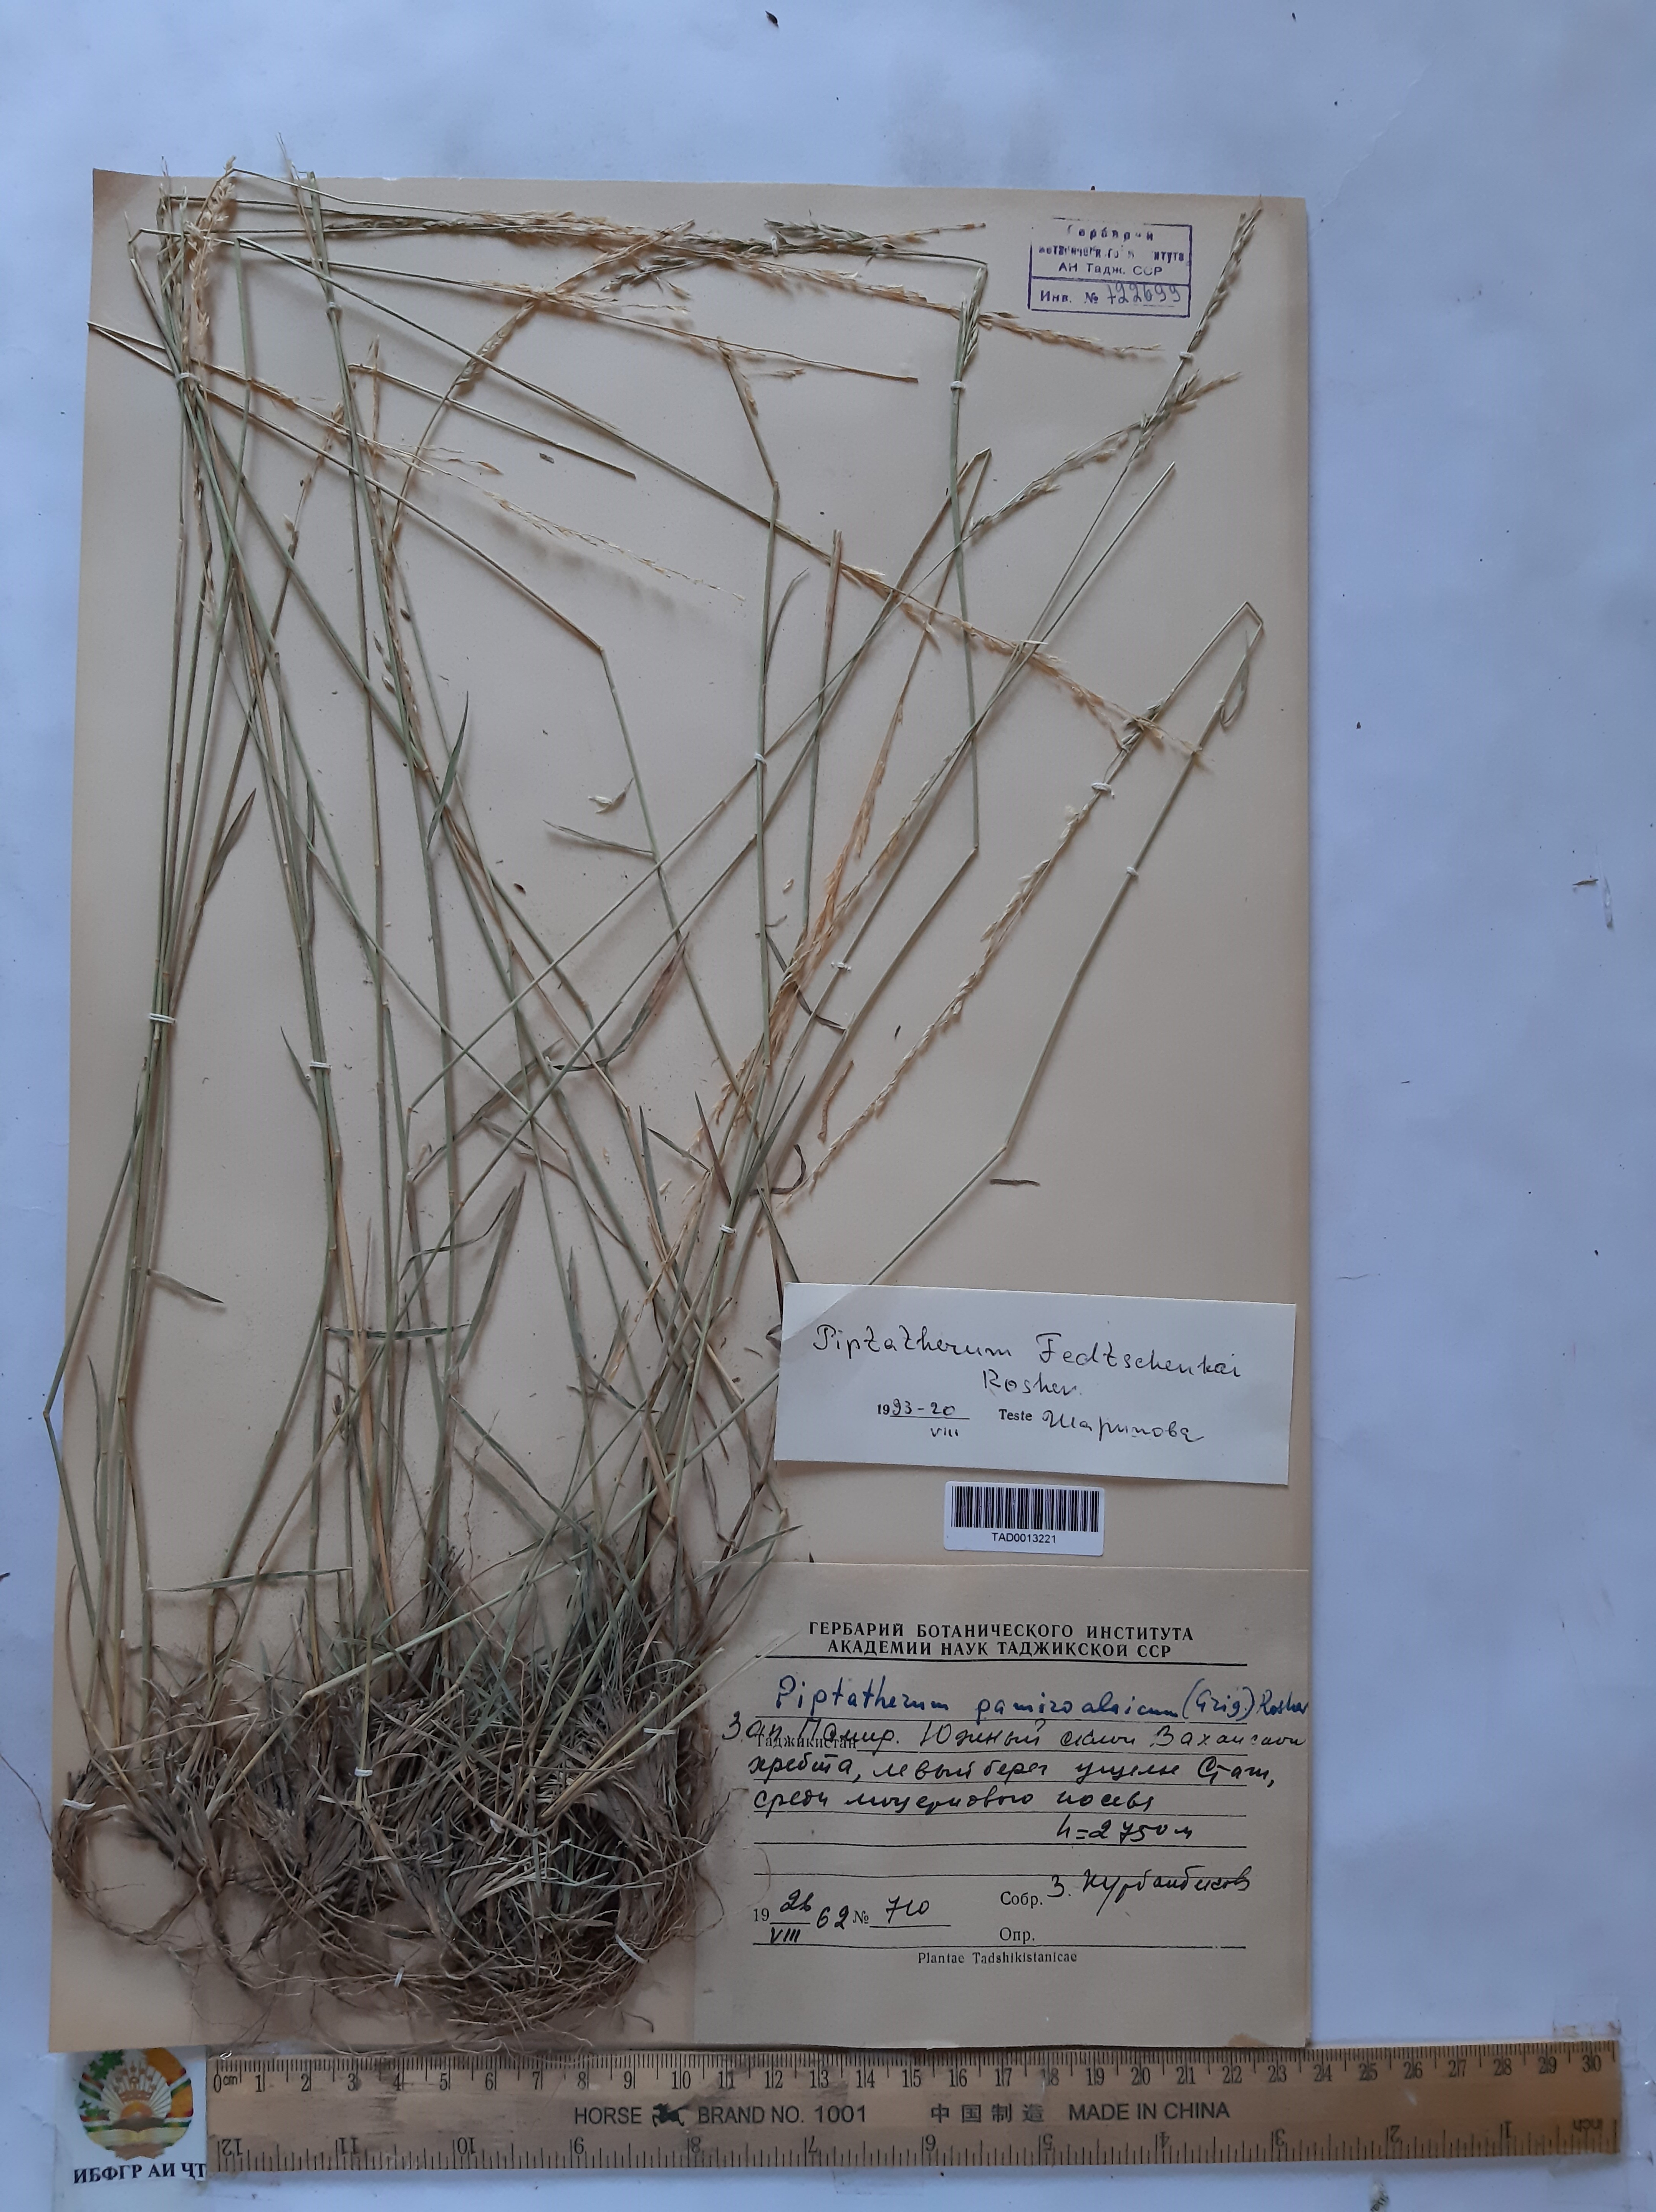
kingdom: Plantae
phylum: Tracheophyta
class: Liliopsida
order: Poales
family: Poaceae
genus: Piptatherum
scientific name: Piptatherum sogdianum
